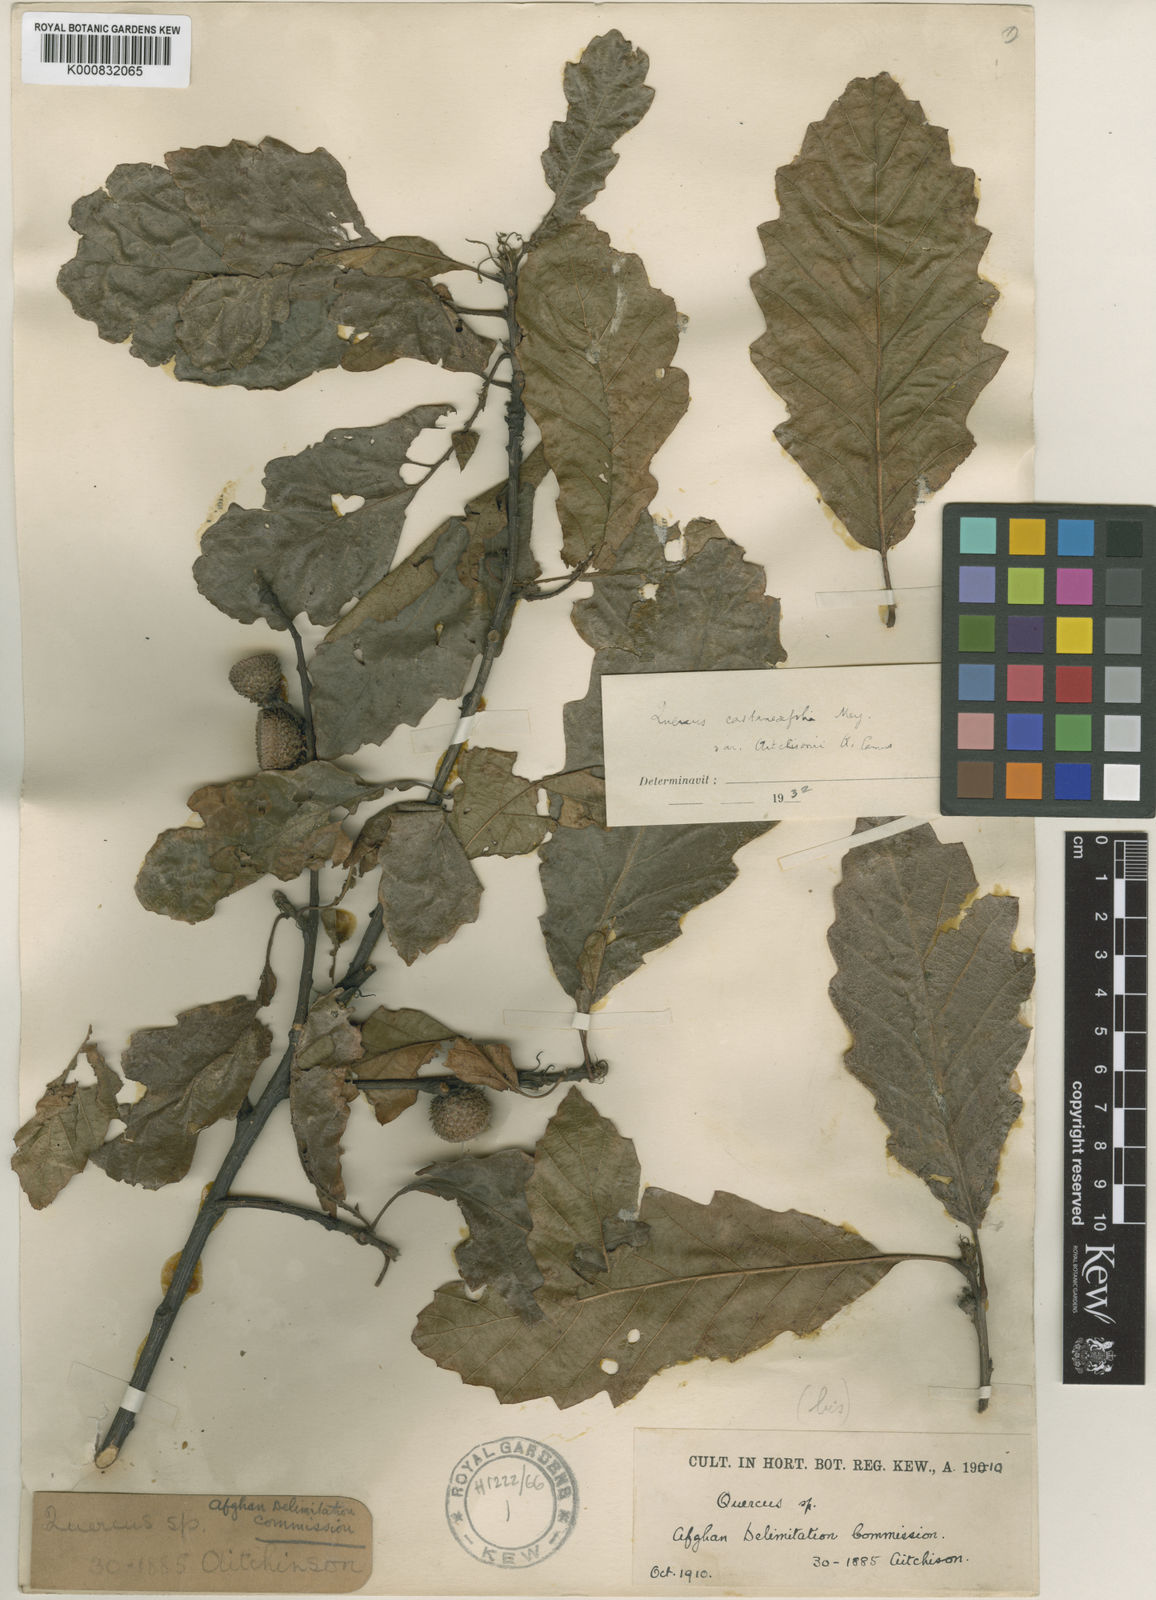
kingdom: Plantae
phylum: Tracheophyta
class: Magnoliopsida
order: Fagales
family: Fagaceae
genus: Quercus
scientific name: Quercus castaneifolia
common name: Chestnut-leaved oak
